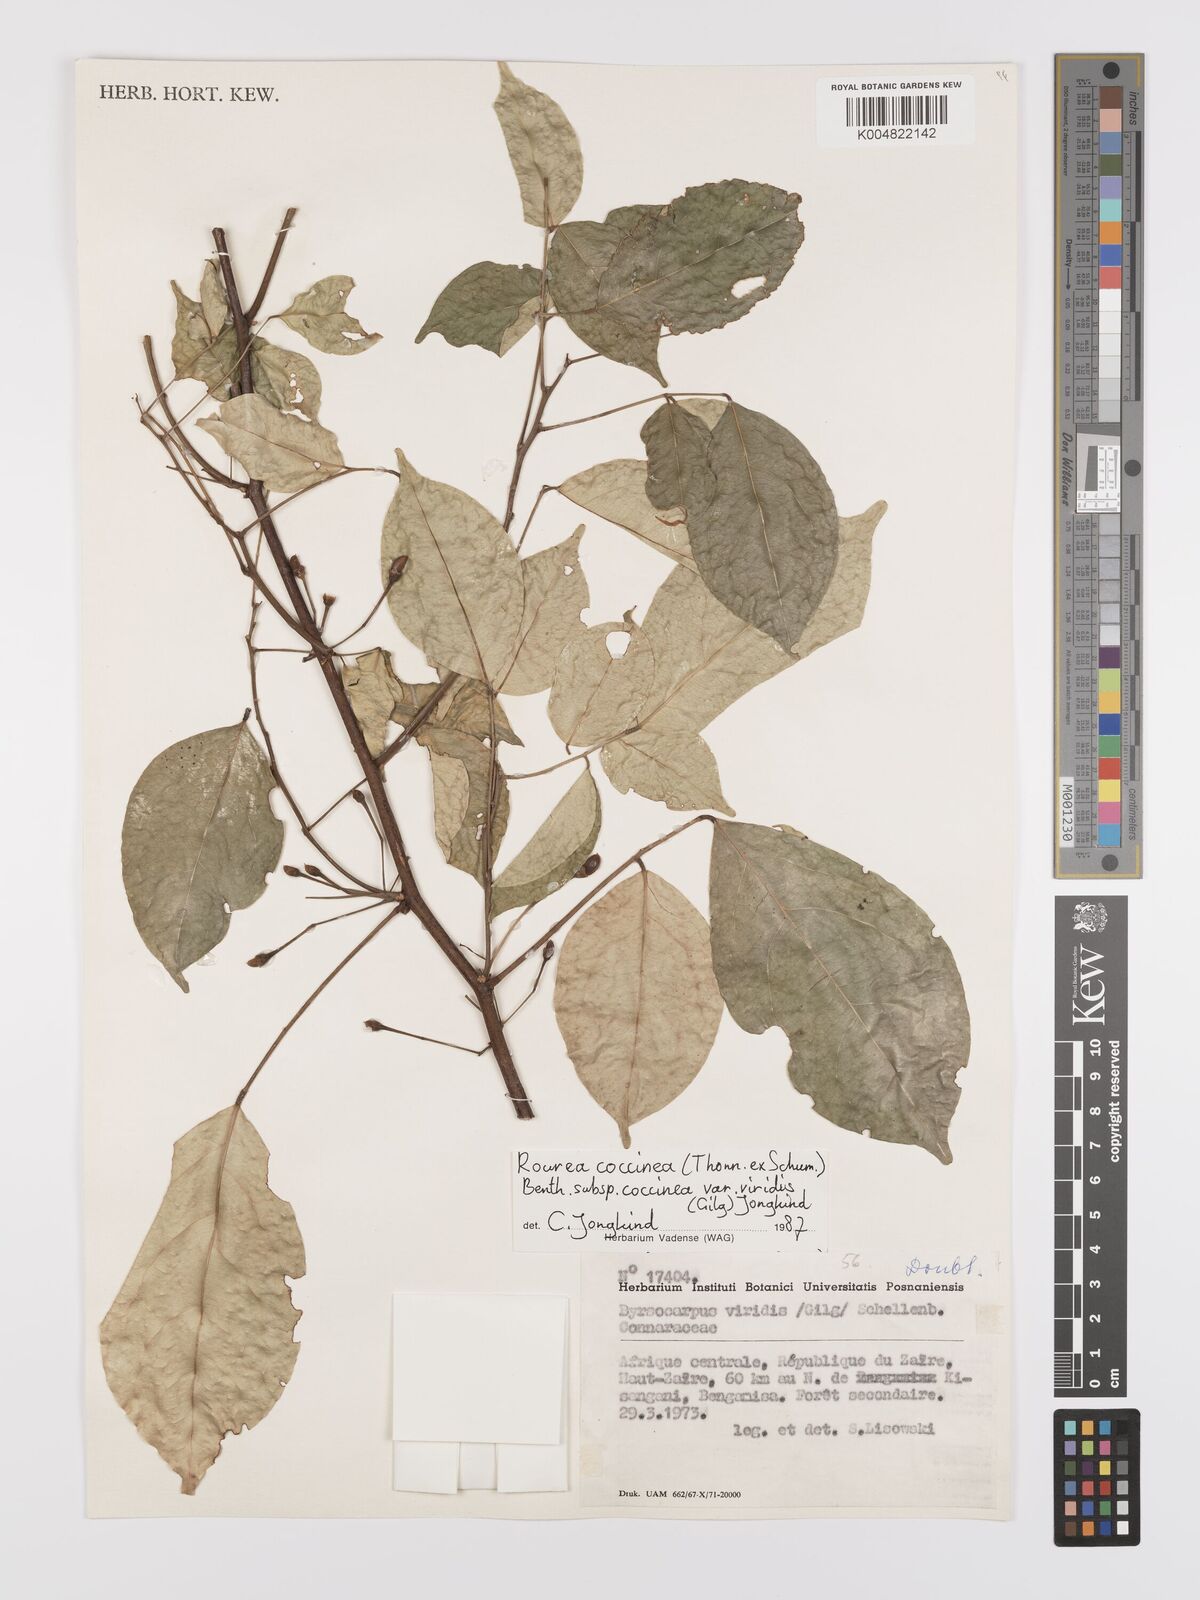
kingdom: Plantae
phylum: Tracheophyta
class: Magnoliopsida
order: Oxalidales
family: Connaraceae
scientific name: Connaraceae
